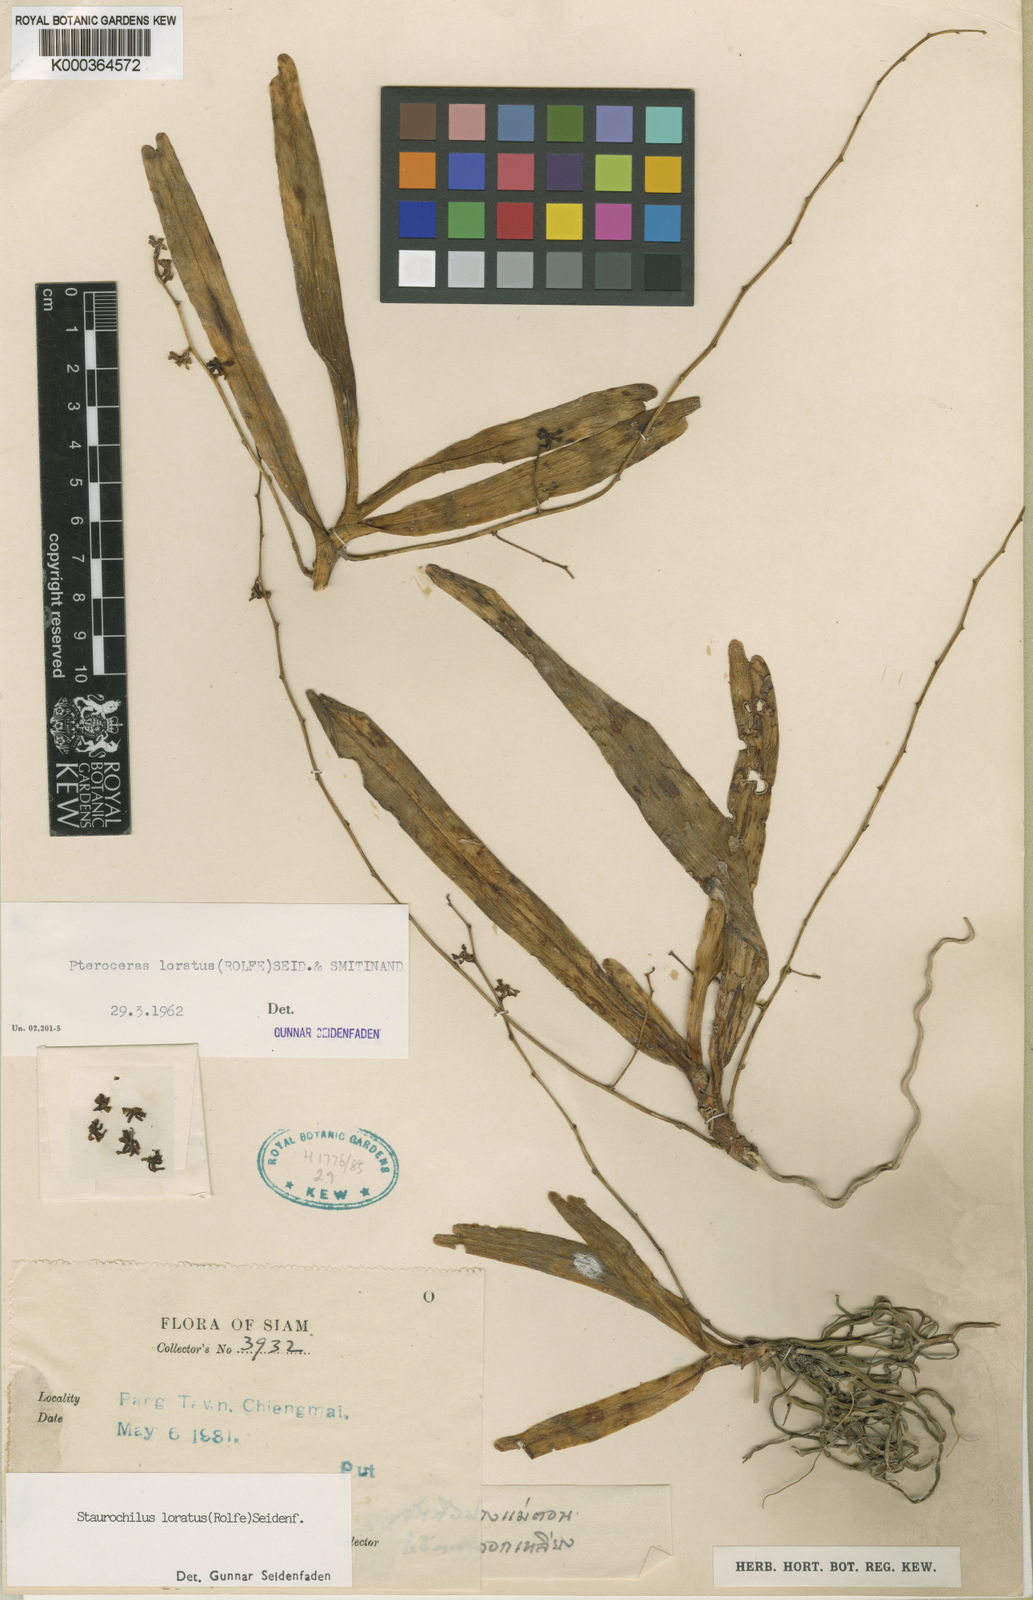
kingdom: Plantae
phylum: Tracheophyta
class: Liliopsida
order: Asparagales
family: Orchidaceae
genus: Trichoglottis
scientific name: Trichoglottis lorata
